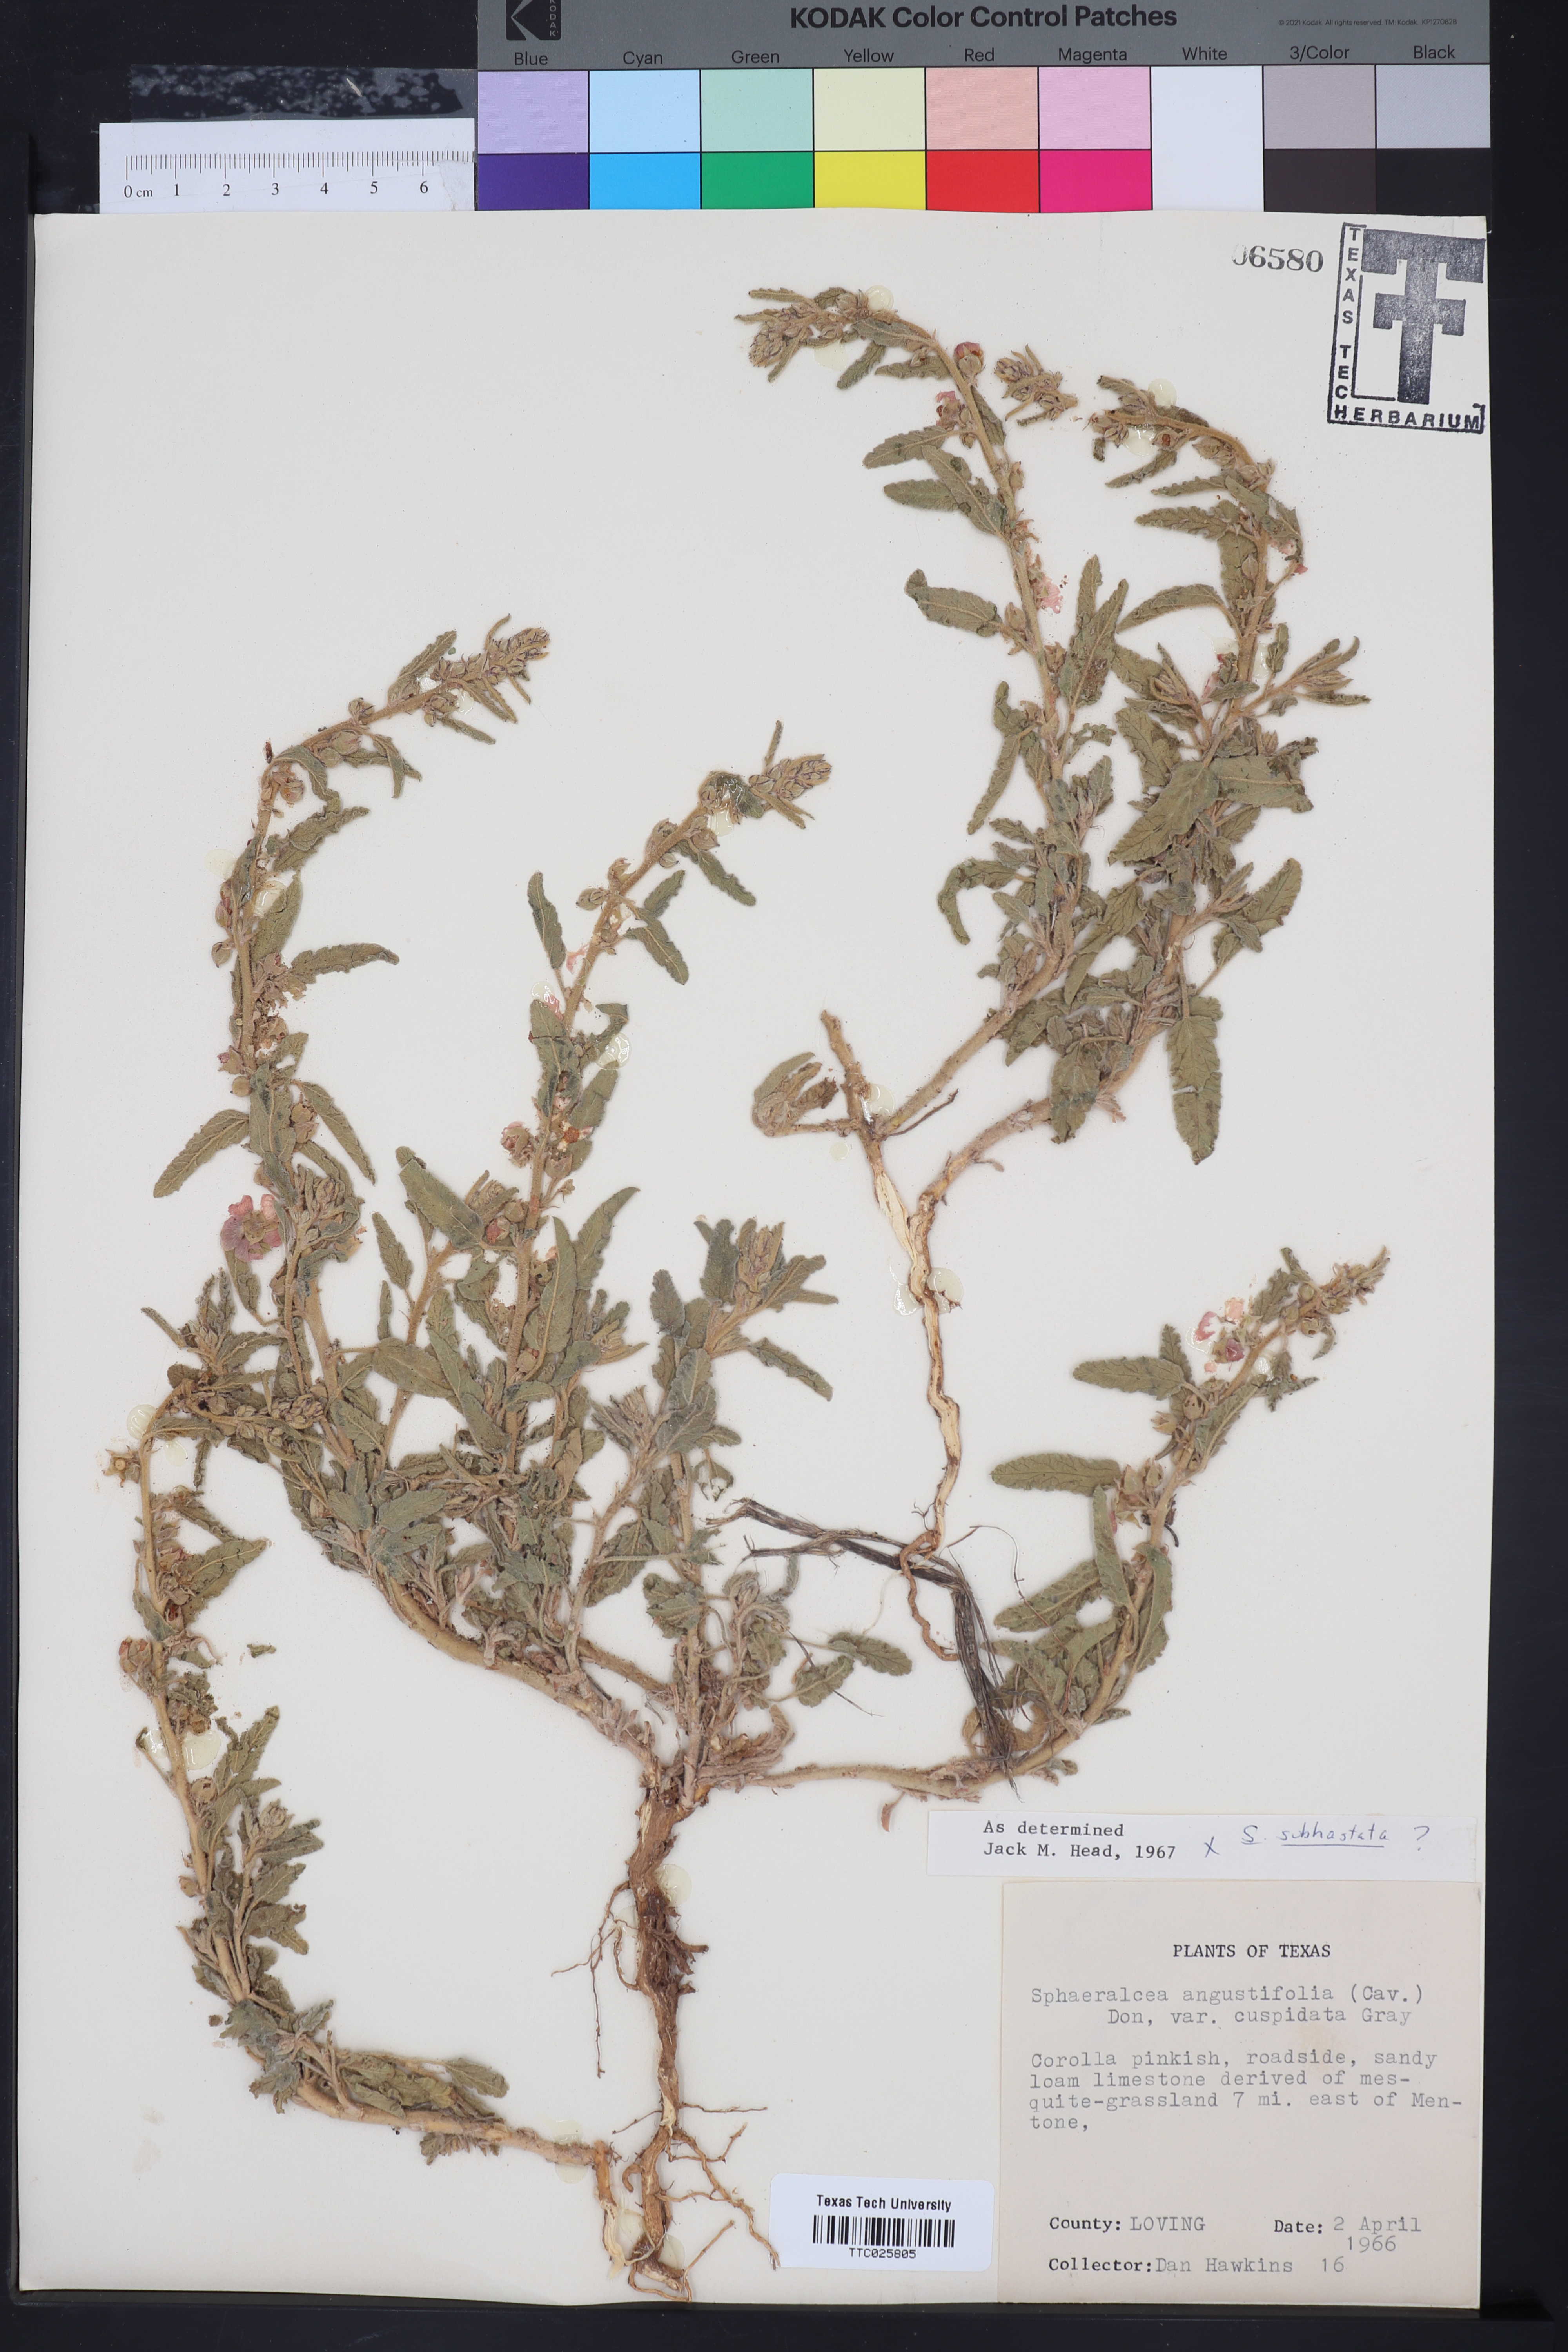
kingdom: Plantae
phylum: Tracheophyta
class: Magnoliopsida
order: Malvales
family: Malvaceae
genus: Sphaeralcea
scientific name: Sphaeralcea hastulata
